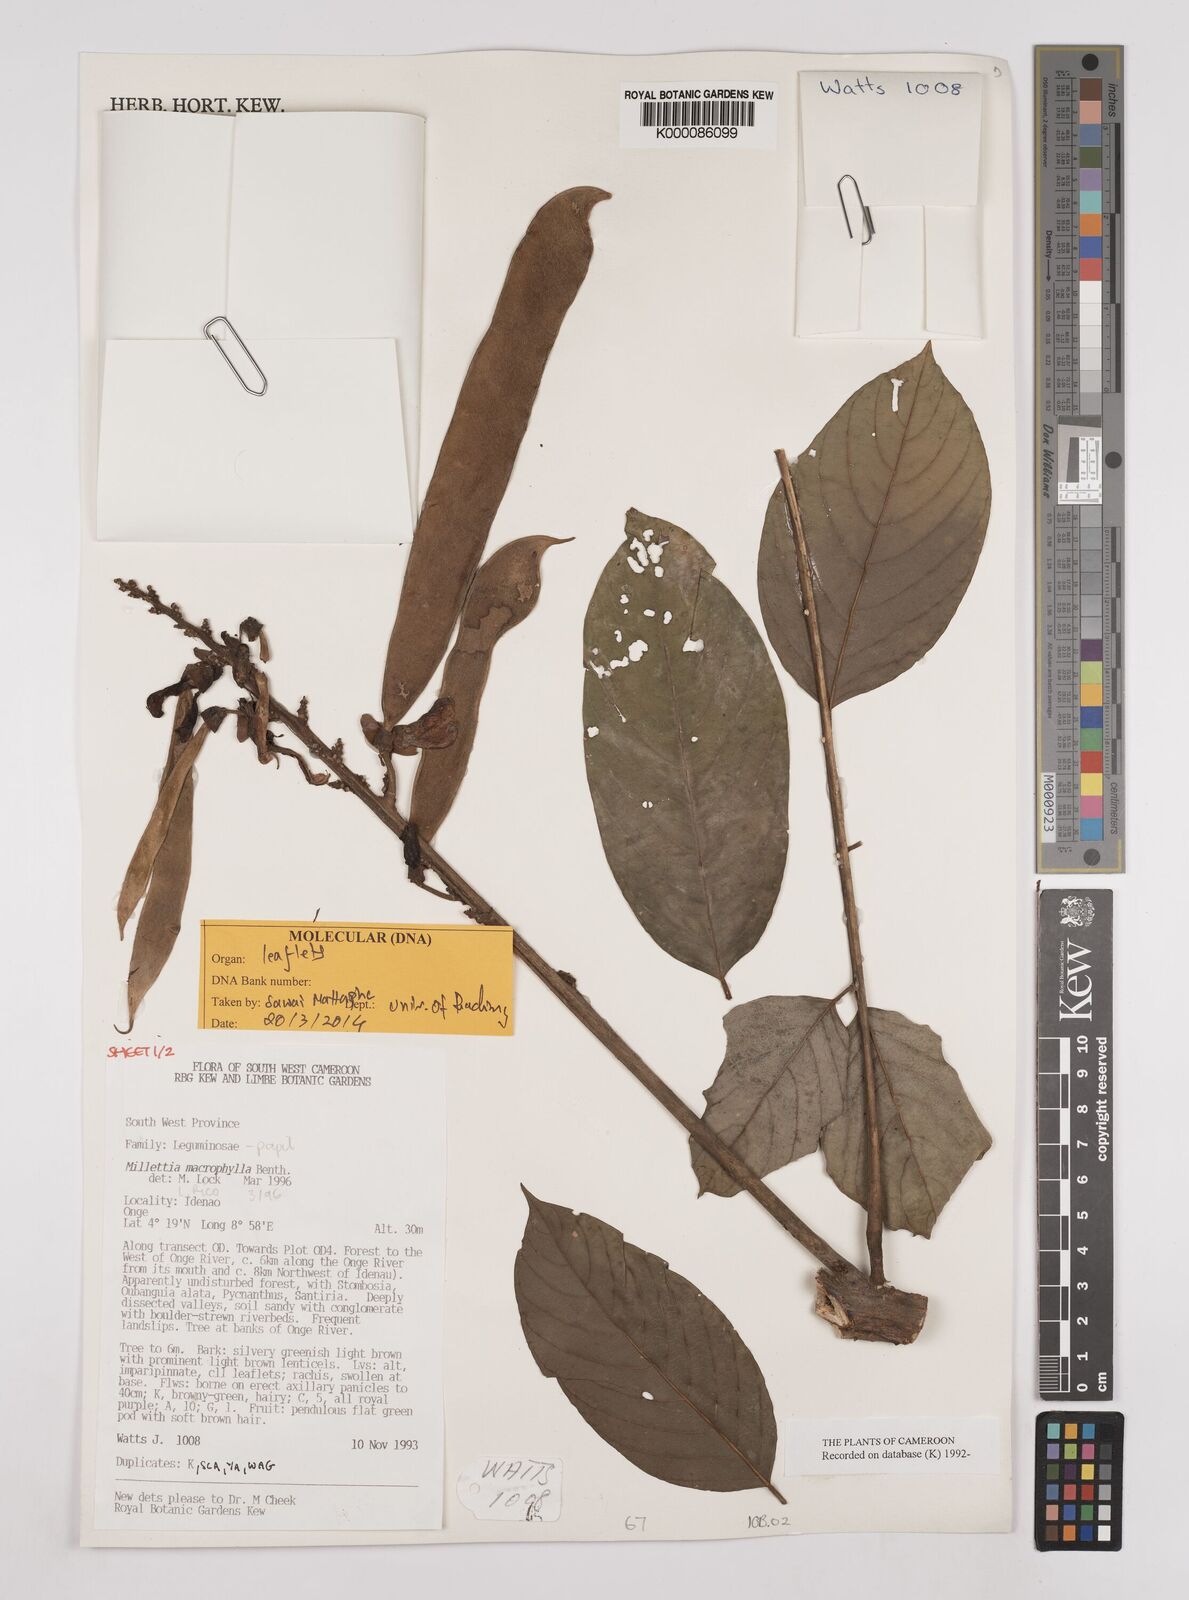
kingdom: Plantae
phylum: Tracheophyta
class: Magnoliopsida
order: Fabales
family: Fabaceae
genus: Millettia
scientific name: Millettia macrophylla
